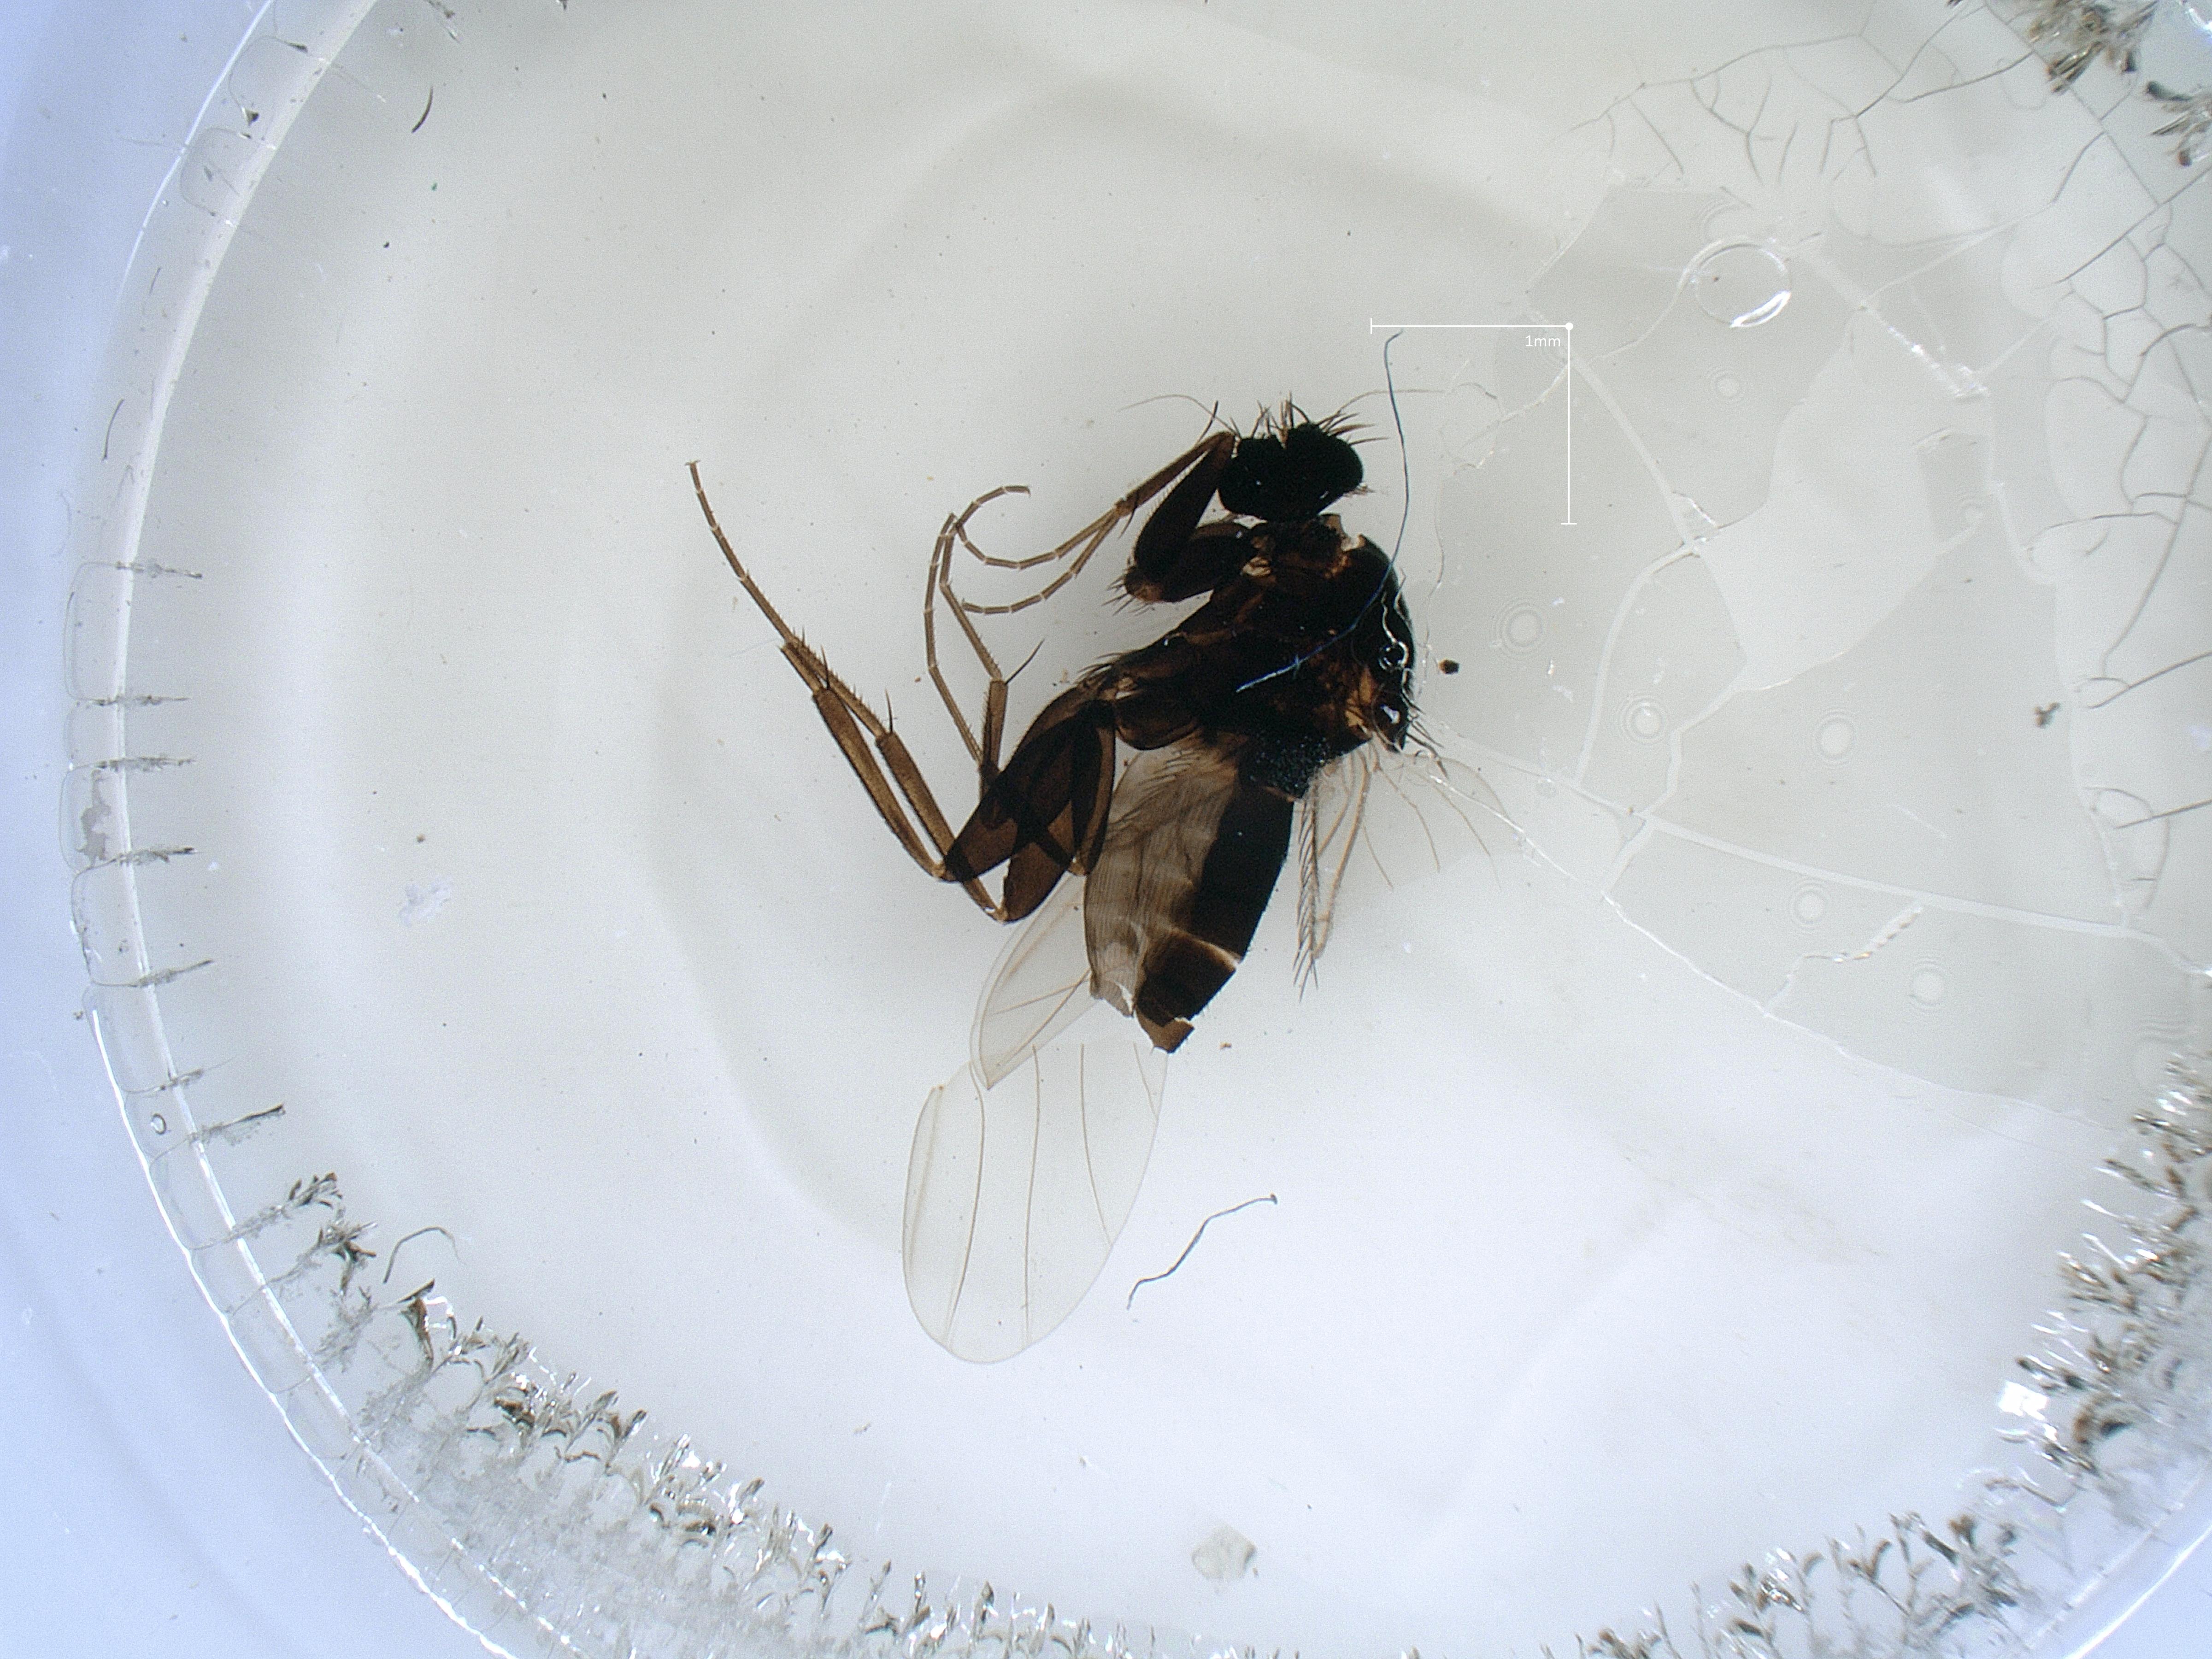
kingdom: Animalia
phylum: Arthropoda
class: Insecta
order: Diptera
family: Phoridae
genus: Megaselia
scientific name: Megaselia tenebricola
